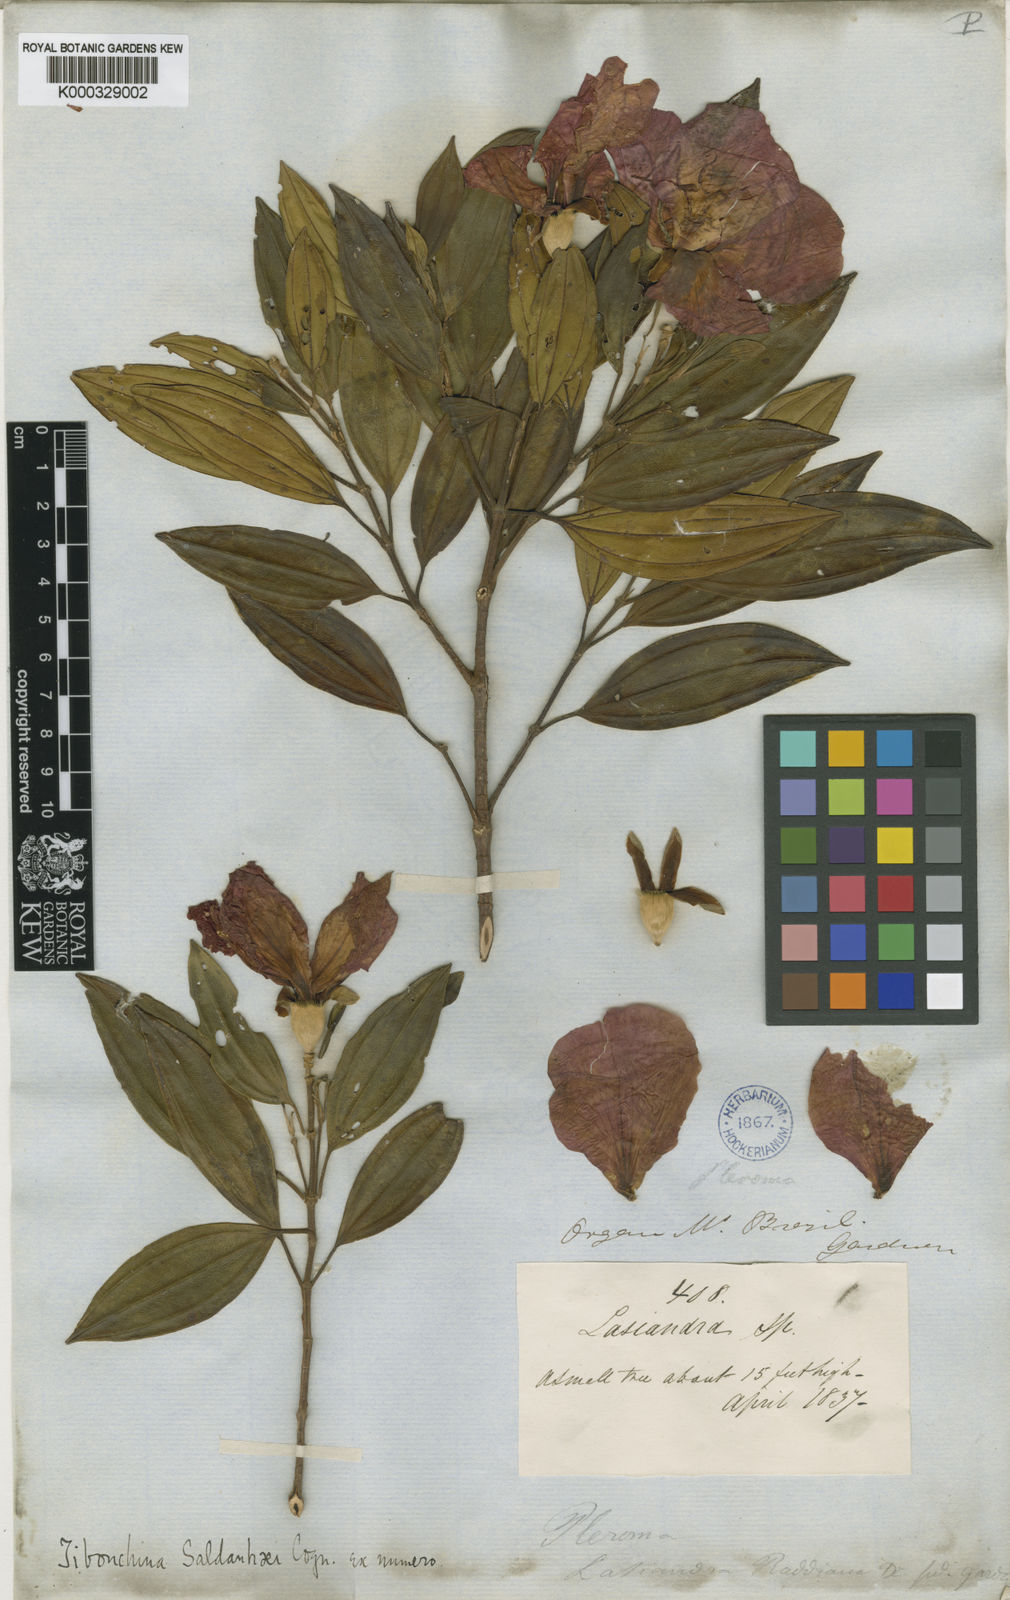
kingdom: Plantae
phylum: Tracheophyta
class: Magnoliopsida
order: Myrtales
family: Melastomataceae
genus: Pleroma
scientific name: Pleroma raddianum
